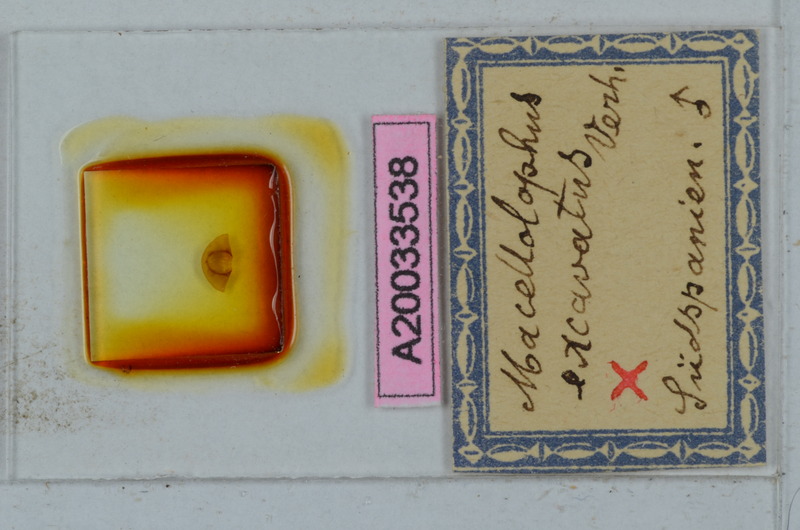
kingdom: Animalia
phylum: Arthropoda
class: Diplopoda
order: Polydesmida
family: Chelodesmidae
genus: Macellolophus
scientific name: Macellolophus rubromarginatus
